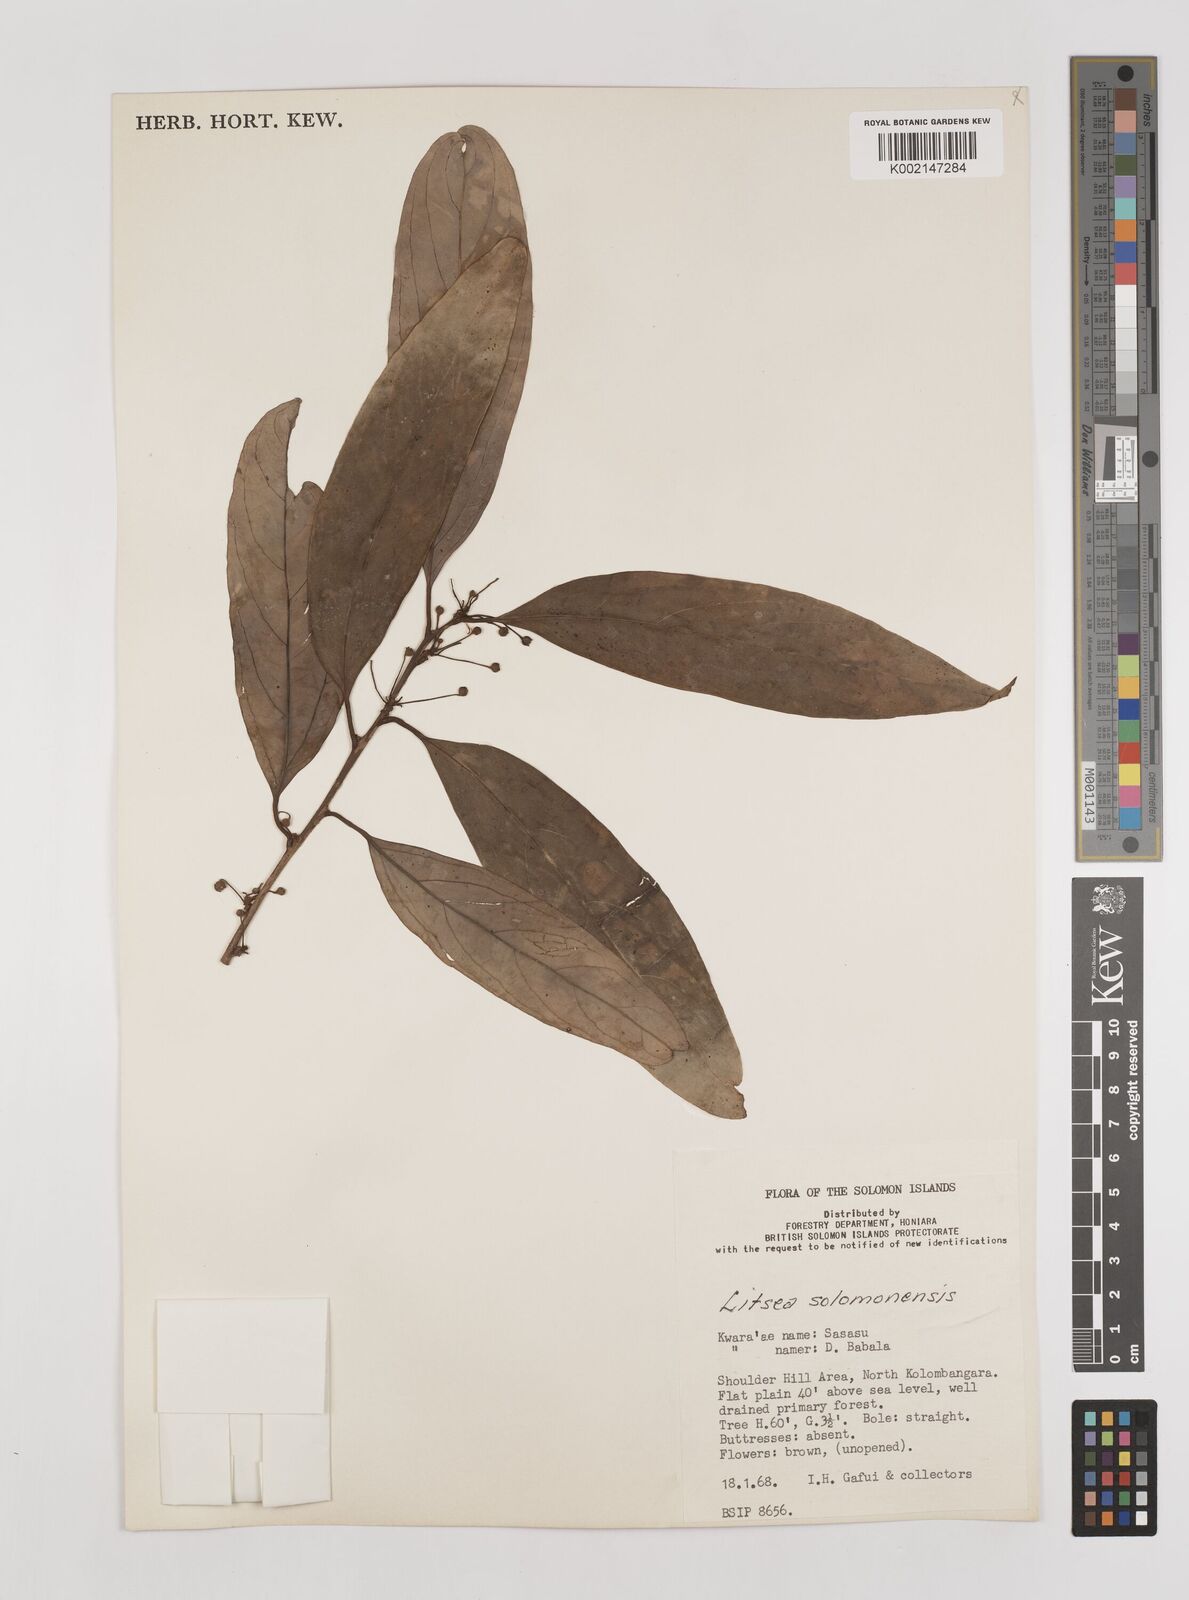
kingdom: Plantae
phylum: Tracheophyta
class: Magnoliopsida
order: Laurales
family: Lauraceae
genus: Litsea
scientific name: Litsea timoriana
